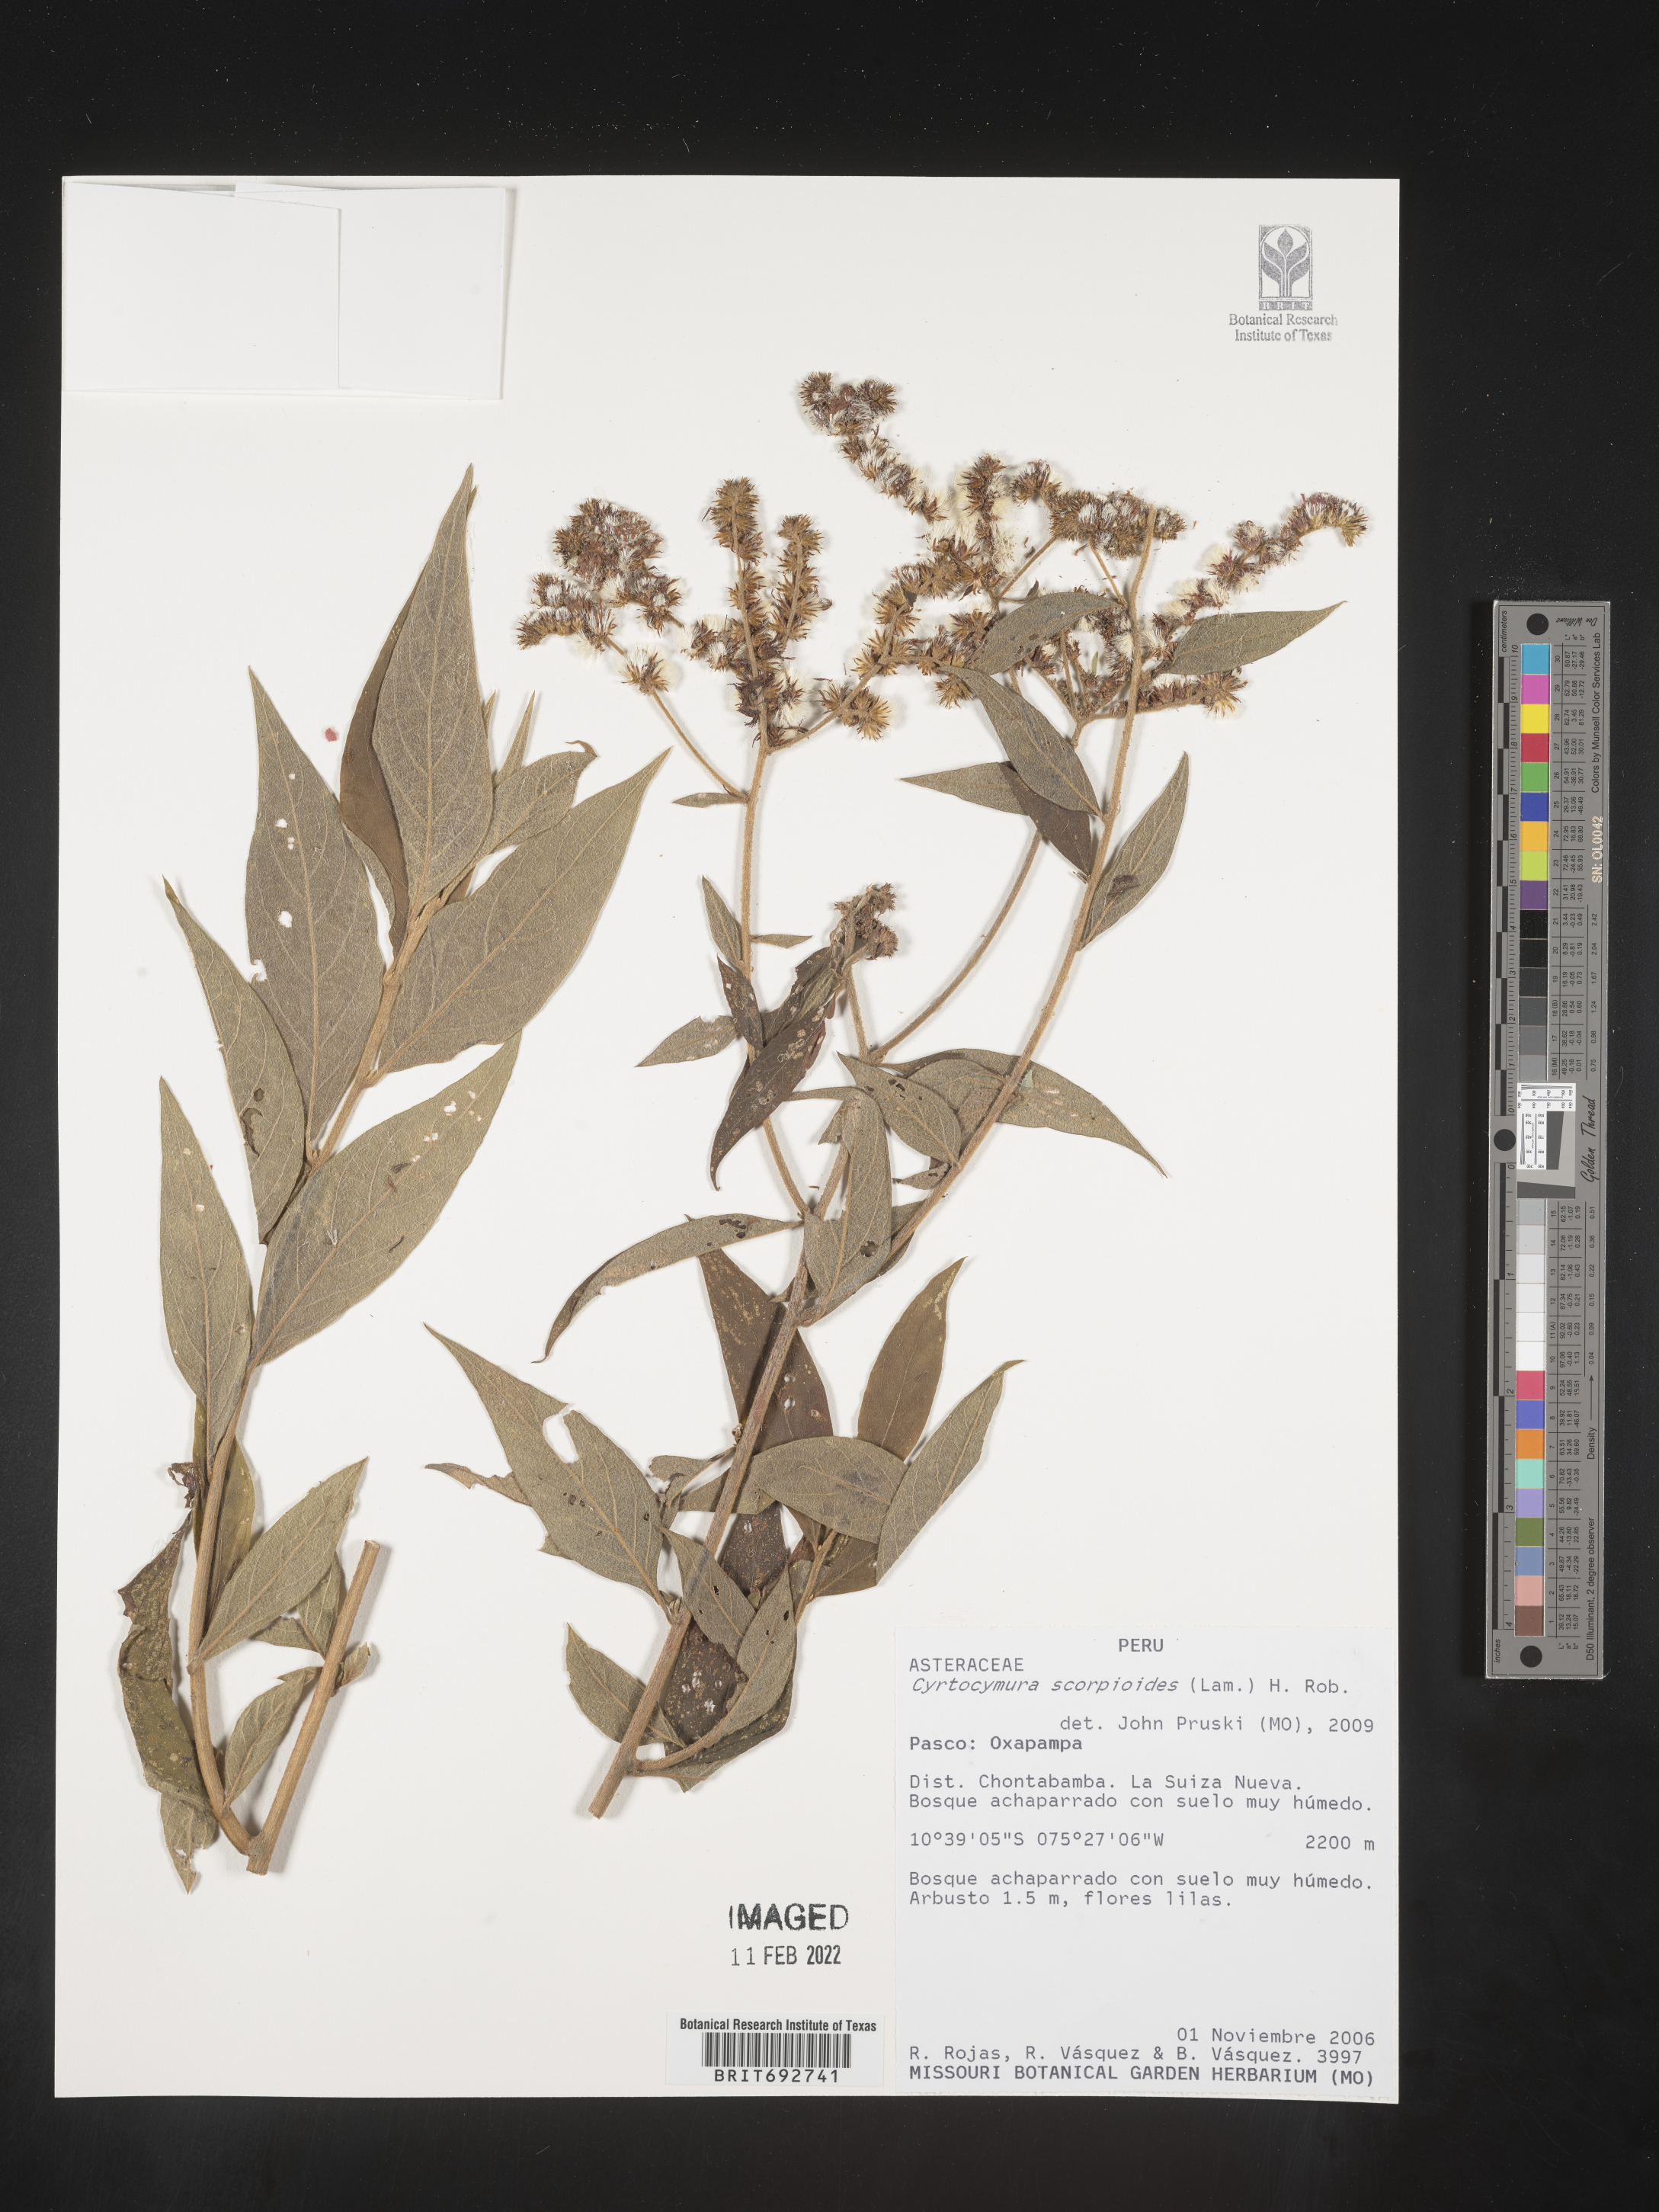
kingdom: Plantae
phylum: Tracheophyta
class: Magnoliopsida
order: Asterales
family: Asteraceae
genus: Cyrtocymura
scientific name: Cyrtocymura
